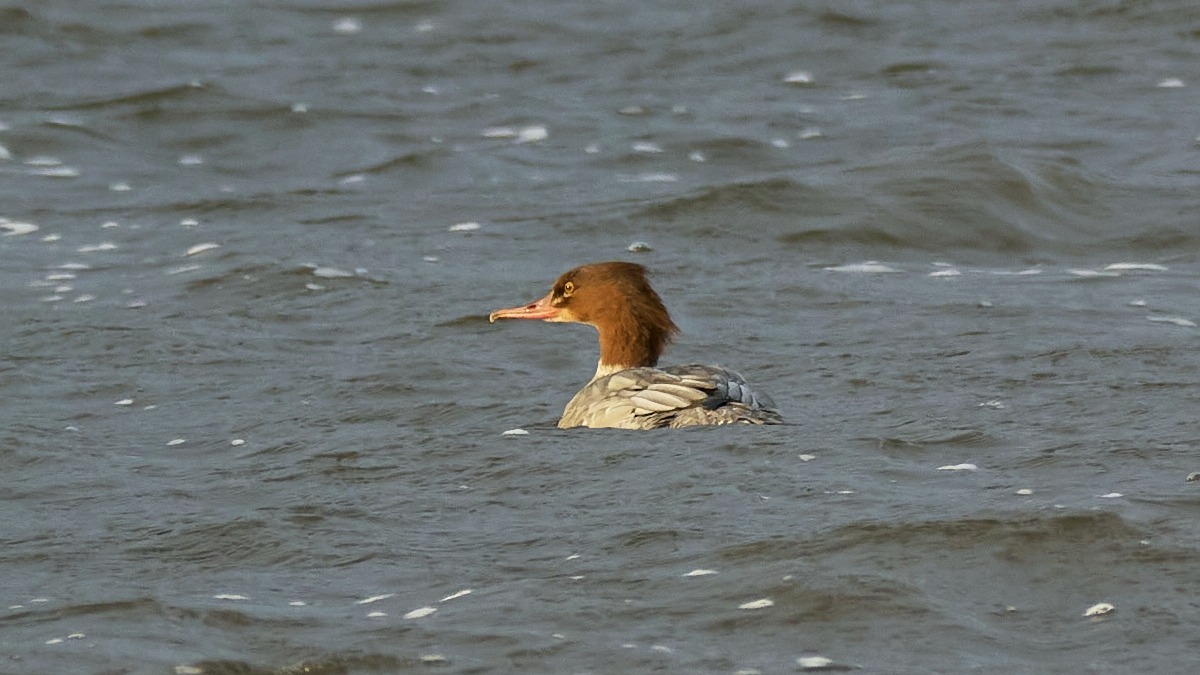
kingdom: Animalia
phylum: Chordata
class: Aves
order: Anseriformes
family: Anatidae
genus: Mergus
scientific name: Mergus merganser
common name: Stor skallesluger
